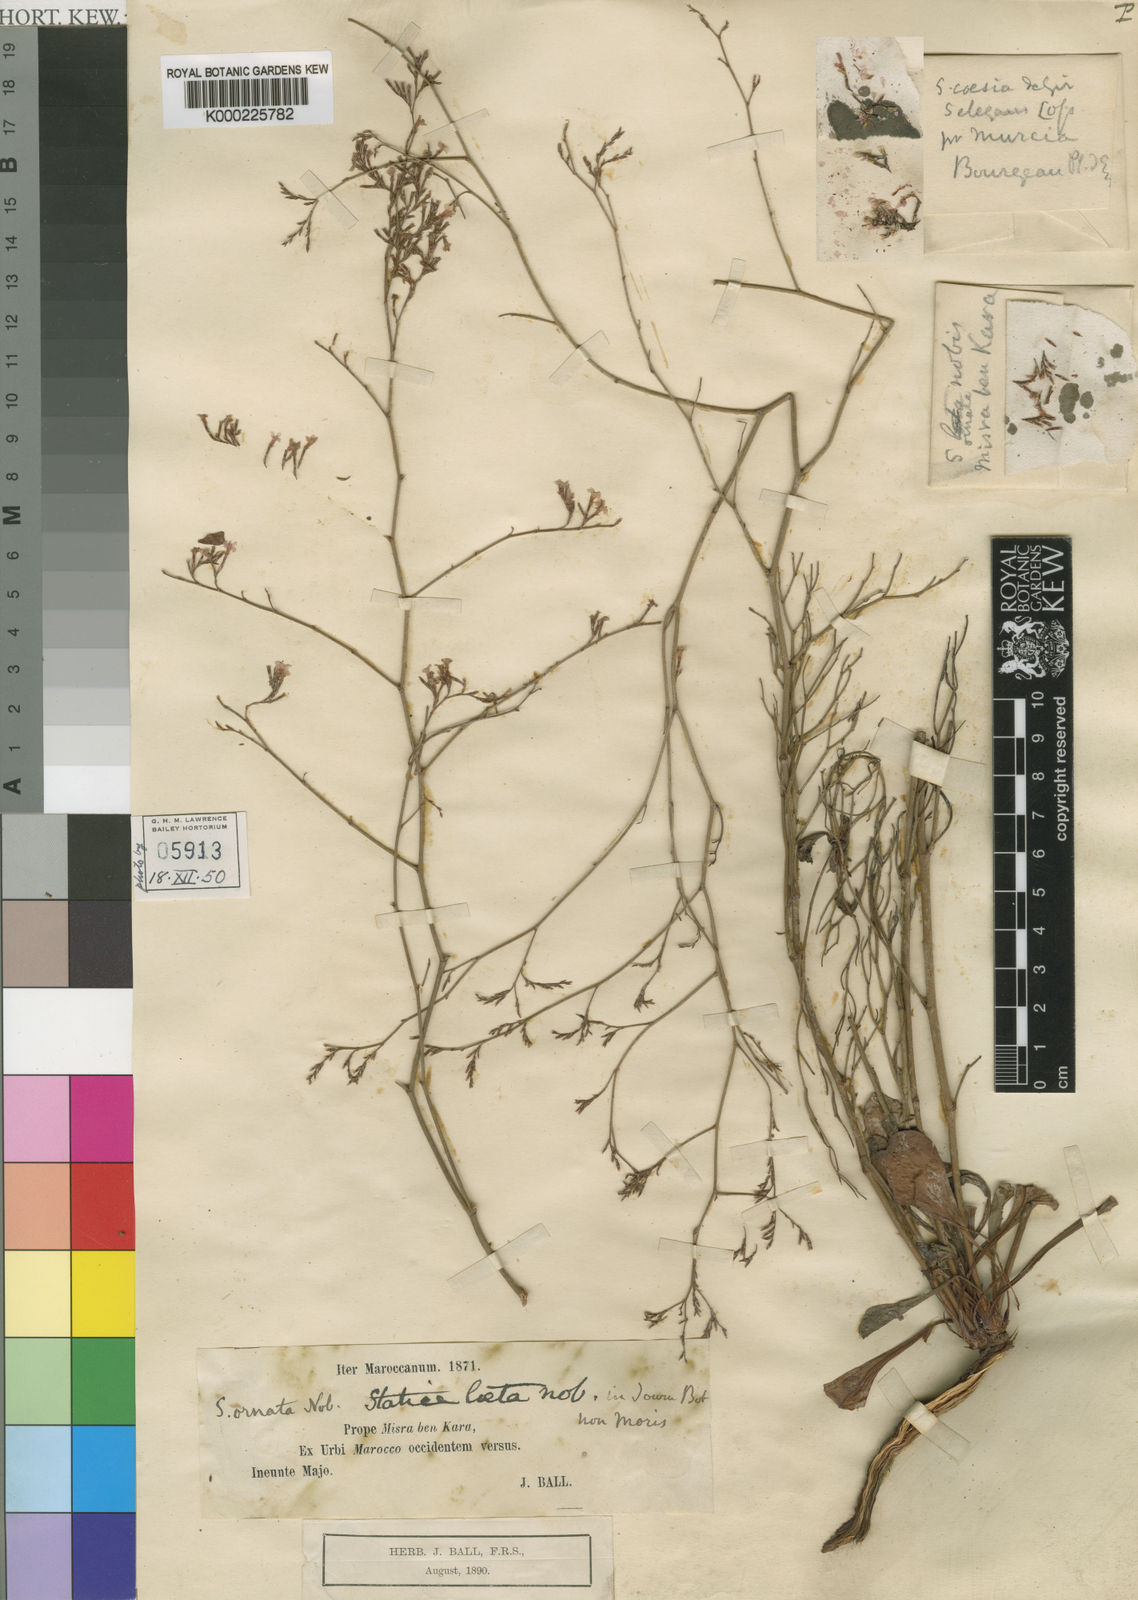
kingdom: Plantae
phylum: Tracheophyta
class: Magnoliopsida
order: Caryophyllales
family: Plumbaginaceae
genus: Limonium
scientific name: Limonium ornatum
